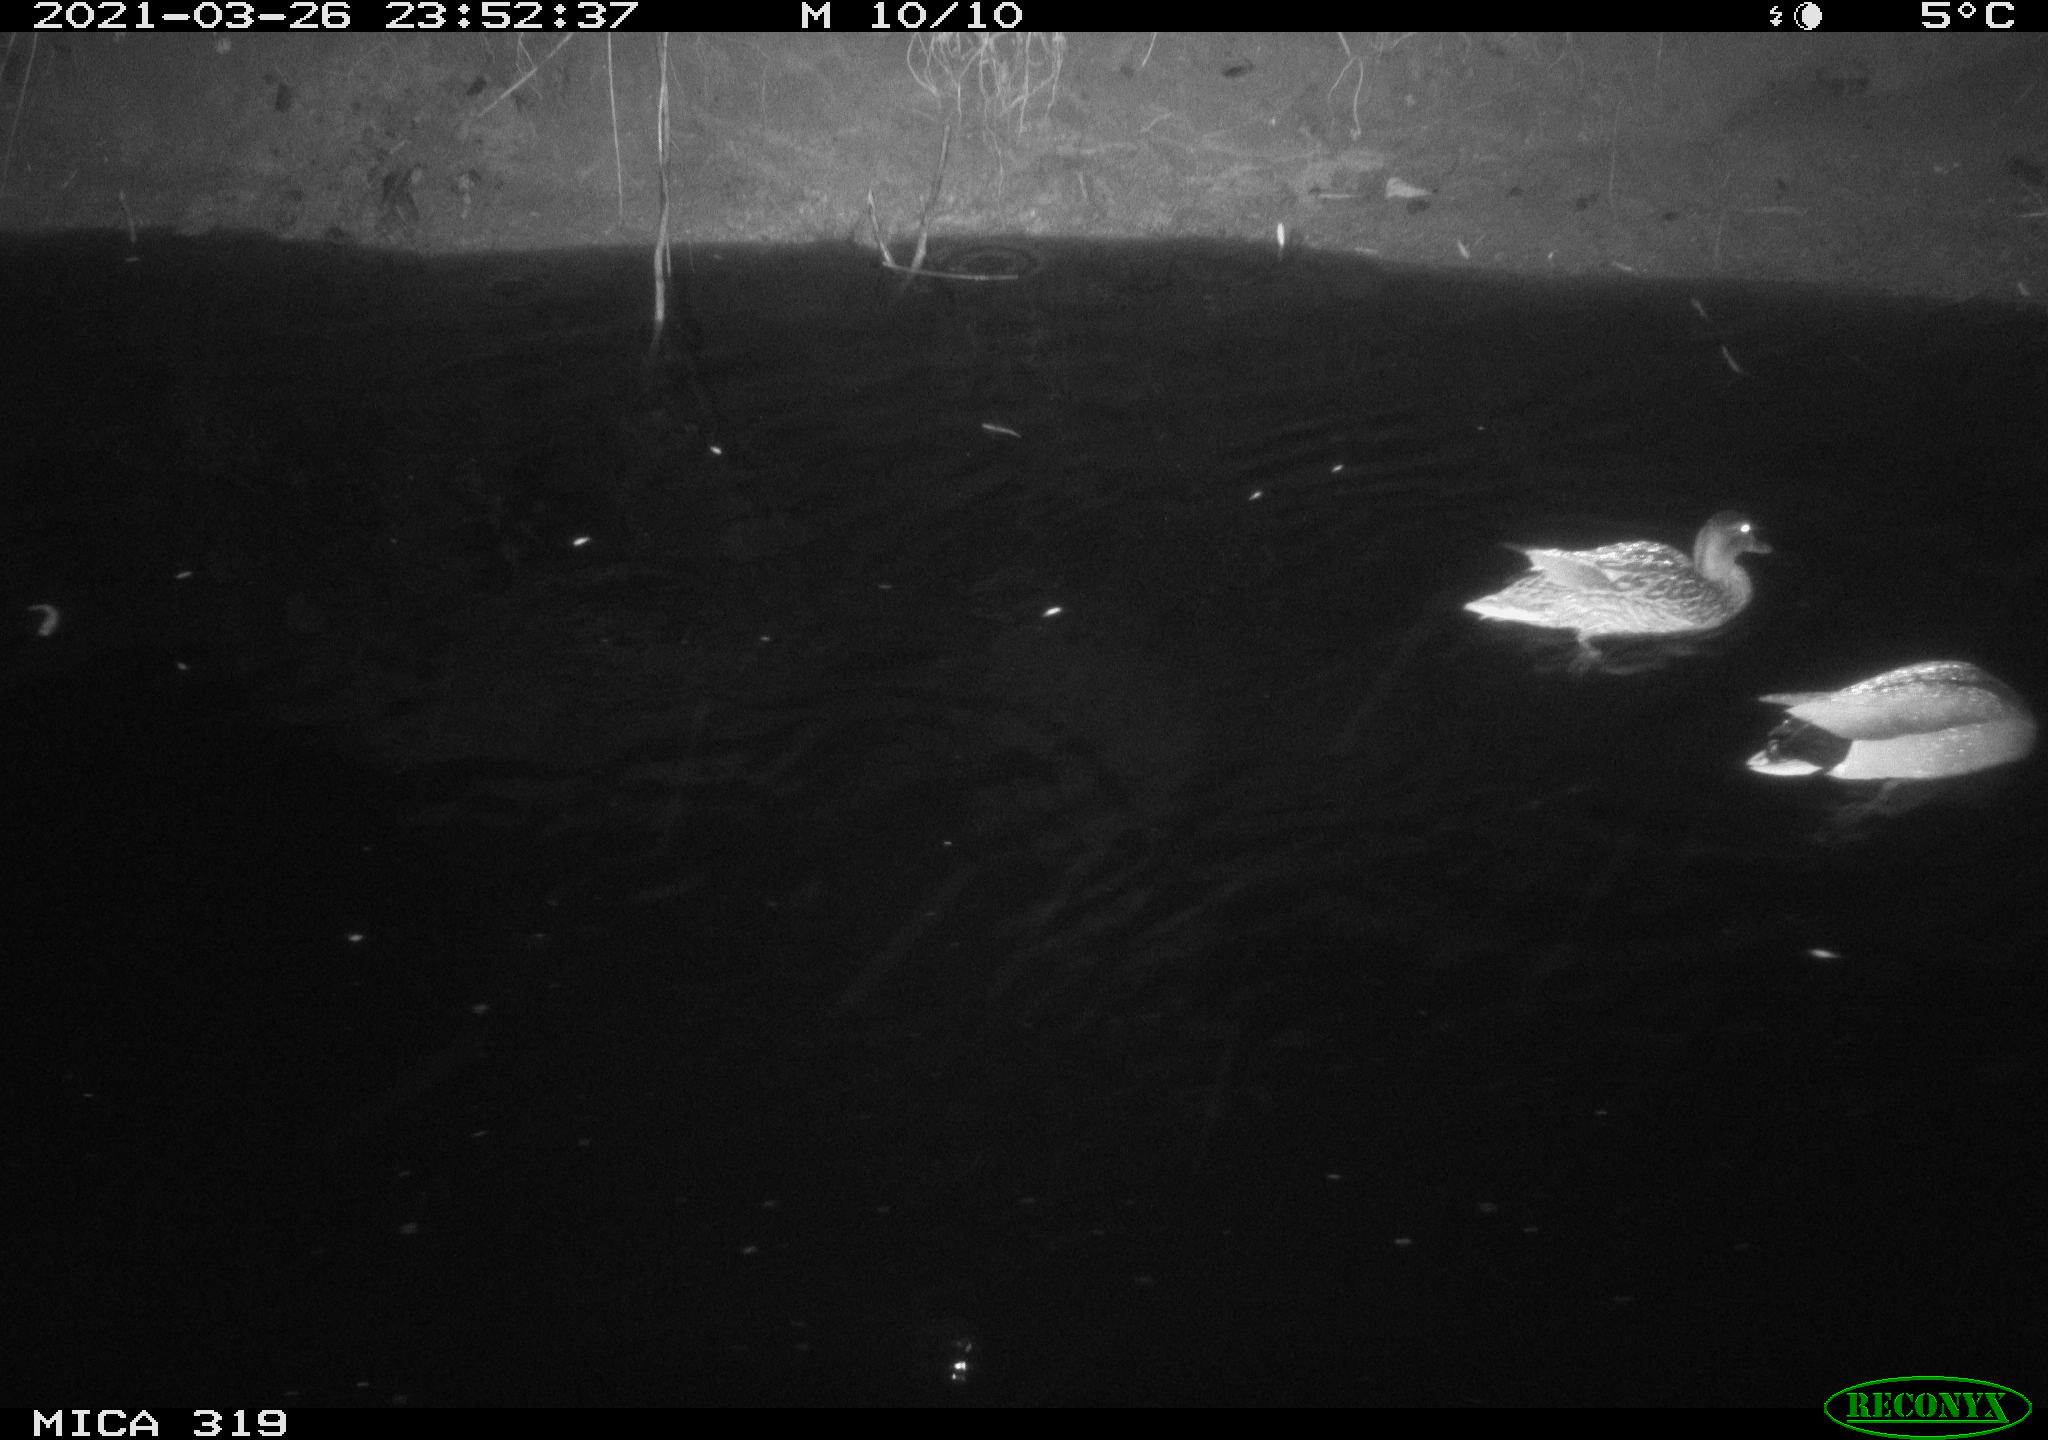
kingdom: Animalia
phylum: Chordata
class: Aves
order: Anseriformes
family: Anatidae
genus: Anas
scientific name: Anas platyrhynchos
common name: Mallard
